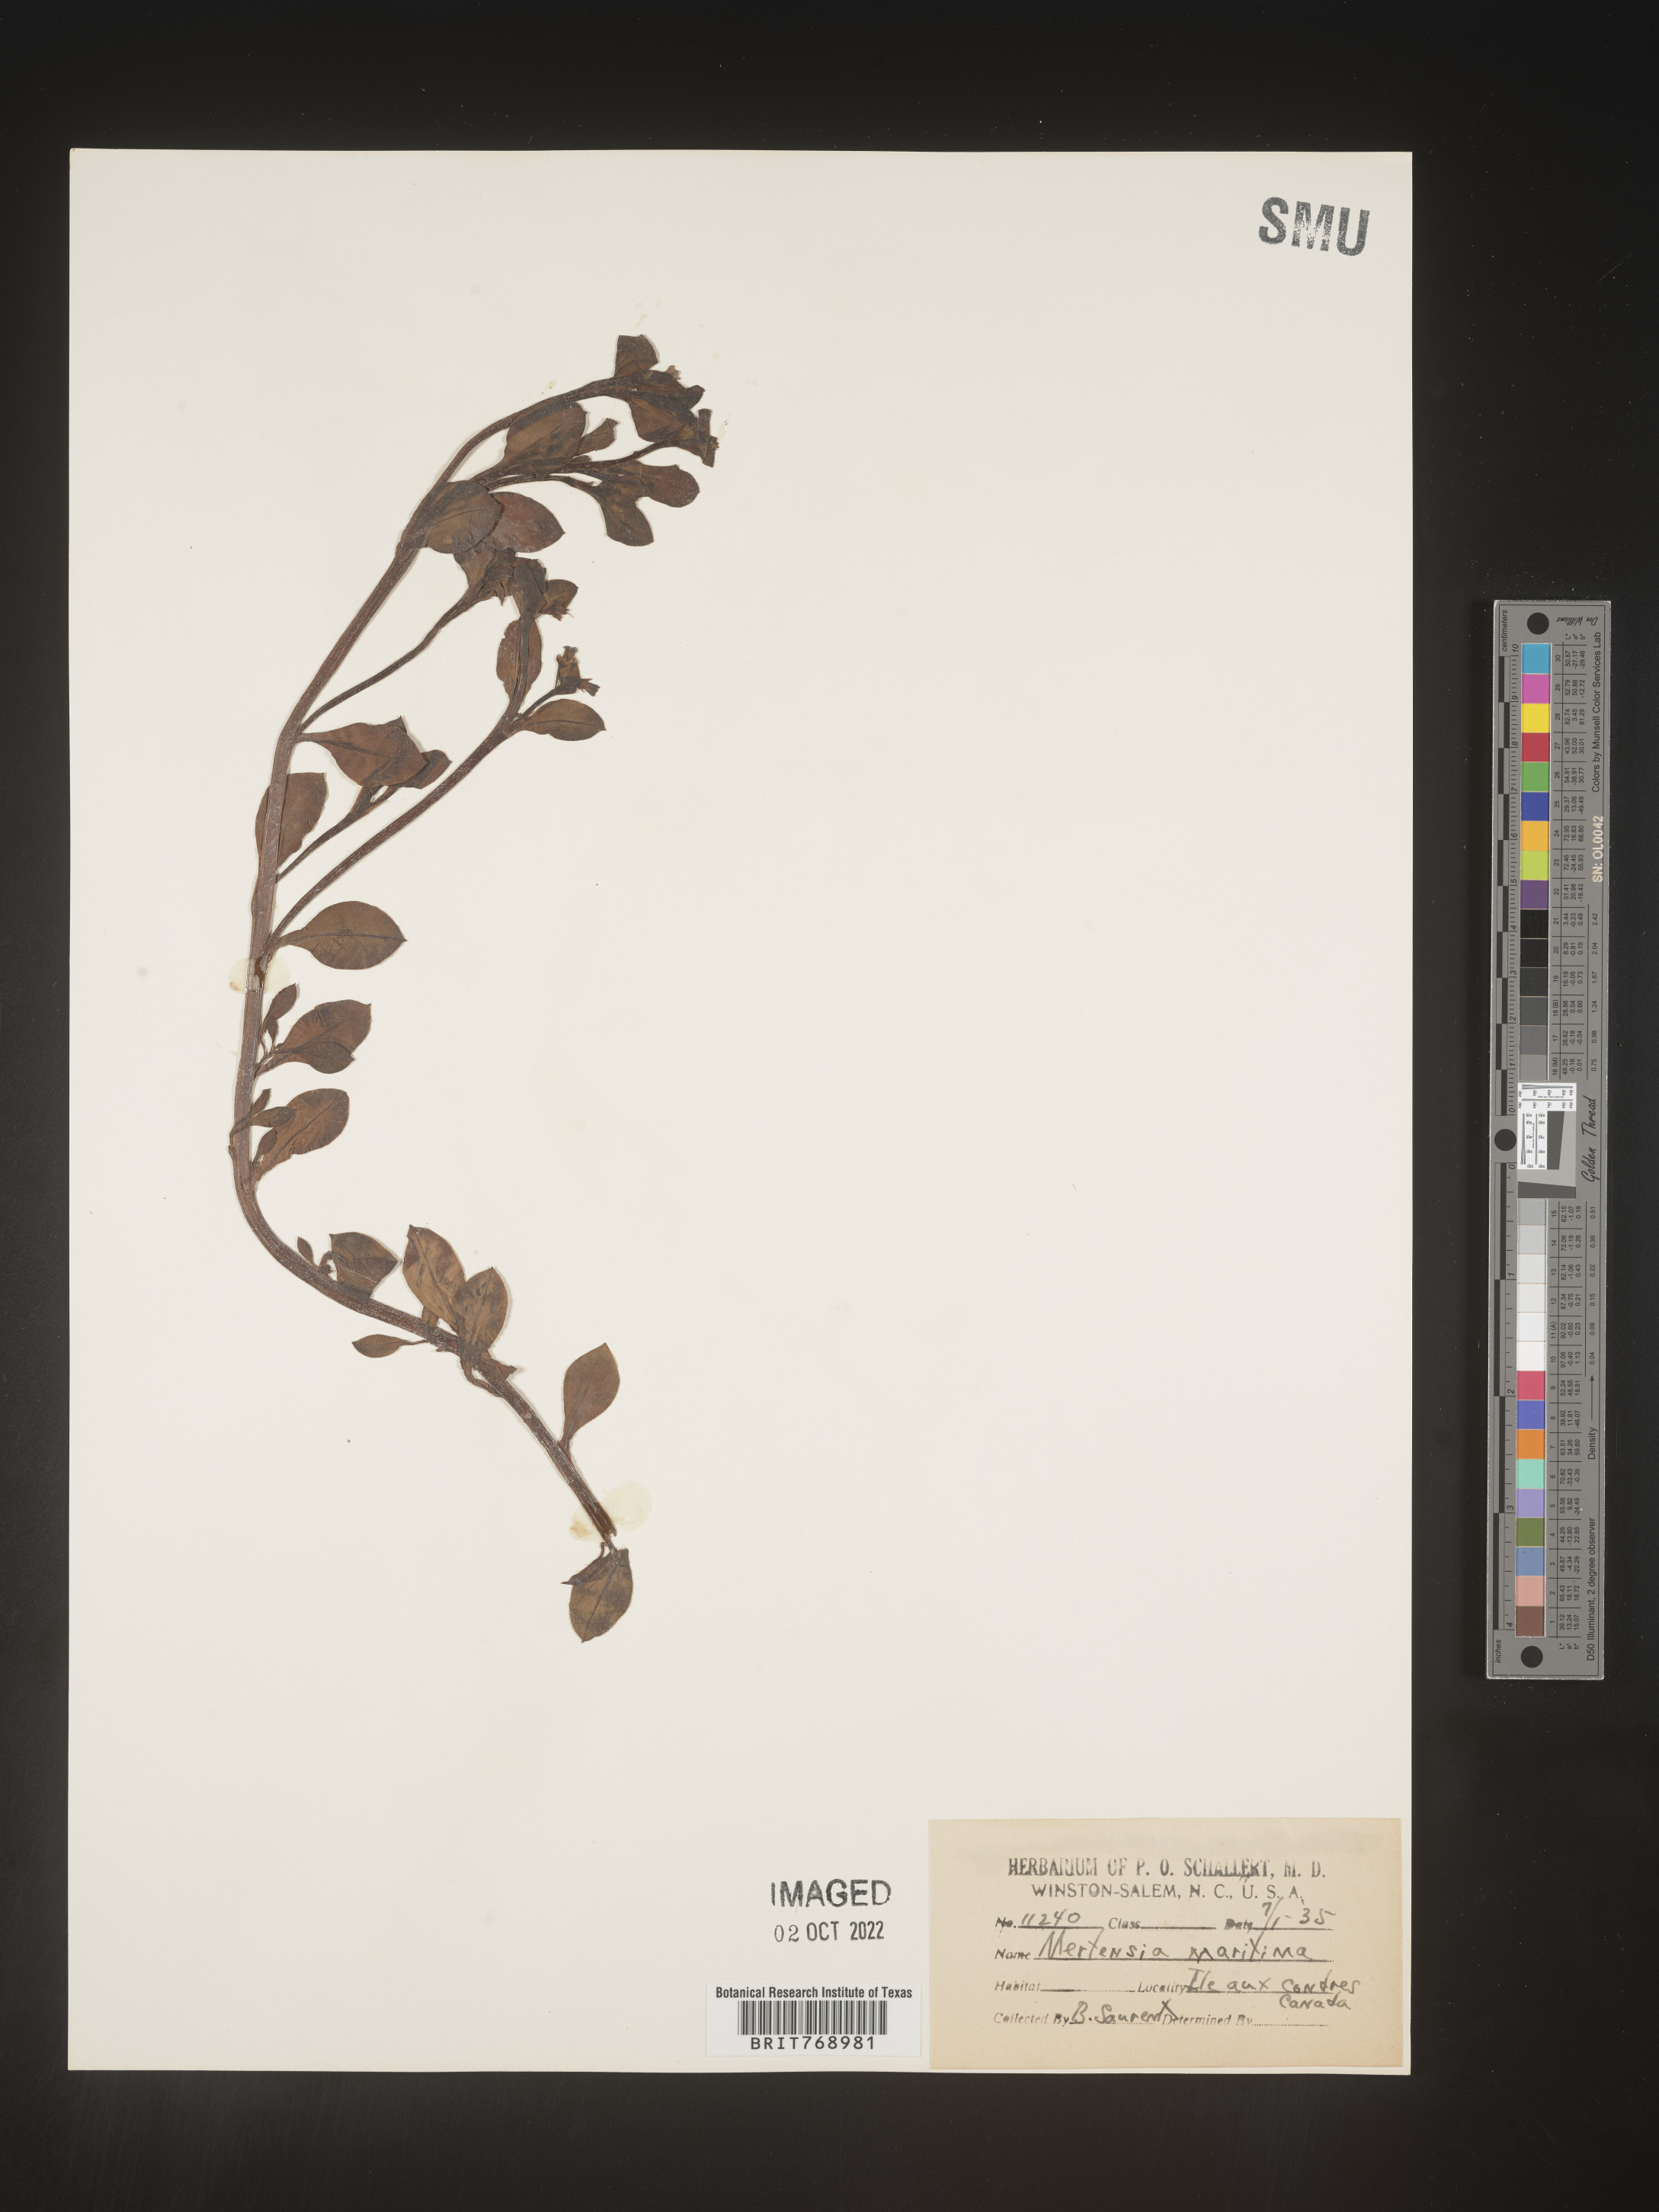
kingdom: Plantae
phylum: Tracheophyta
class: Magnoliopsida
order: Boraginales
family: Boraginaceae
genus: Mertensia
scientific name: Mertensia
